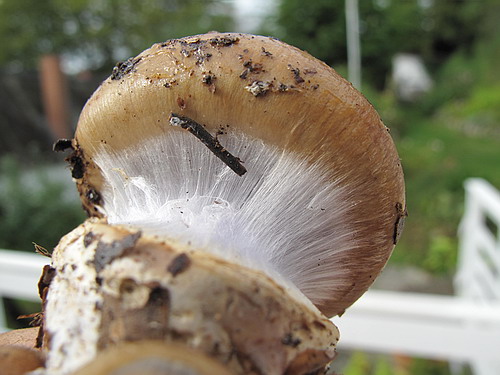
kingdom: Fungi
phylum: Basidiomycota
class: Agaricomycetes
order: Agaricales
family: Cortinariaceae
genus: Cortinarius
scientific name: Cortinarius anserinus
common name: bøge-slørhat
